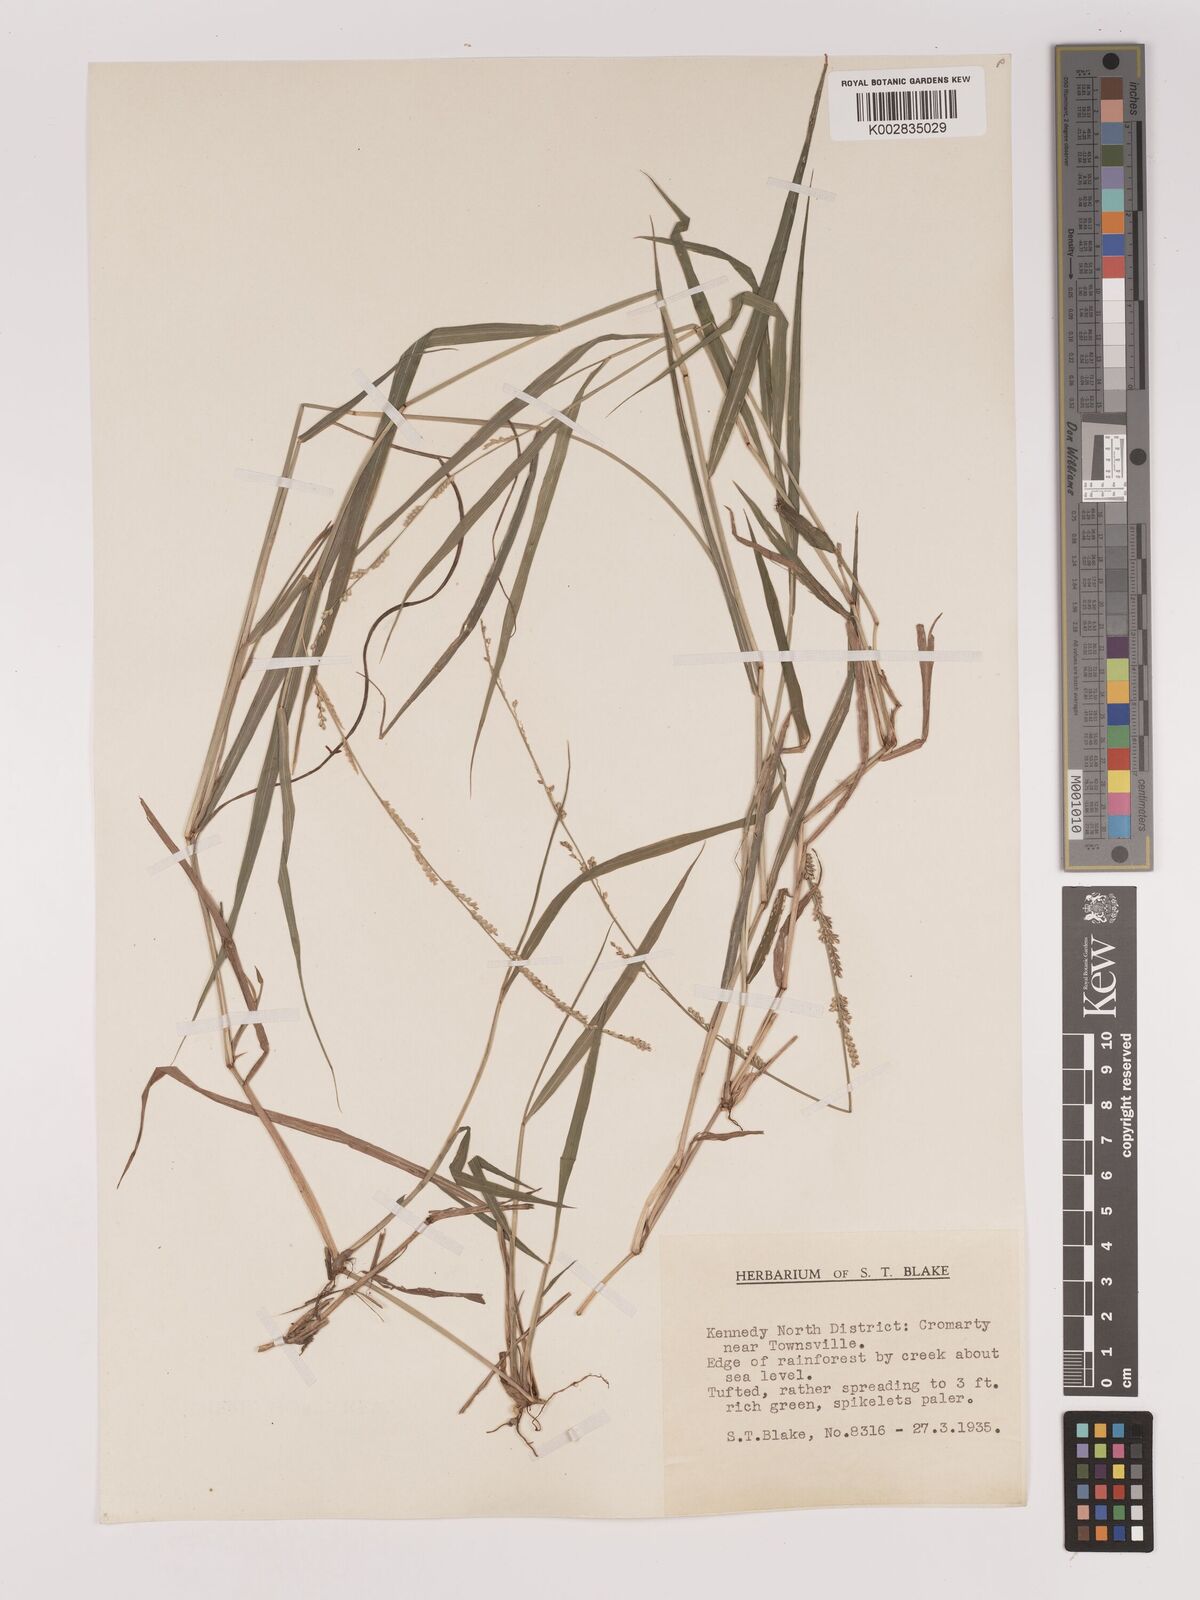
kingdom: Plantae
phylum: Tracheophyta
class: Liliopsida
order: Poales
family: Poaceae
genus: Setaria
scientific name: Setaria
